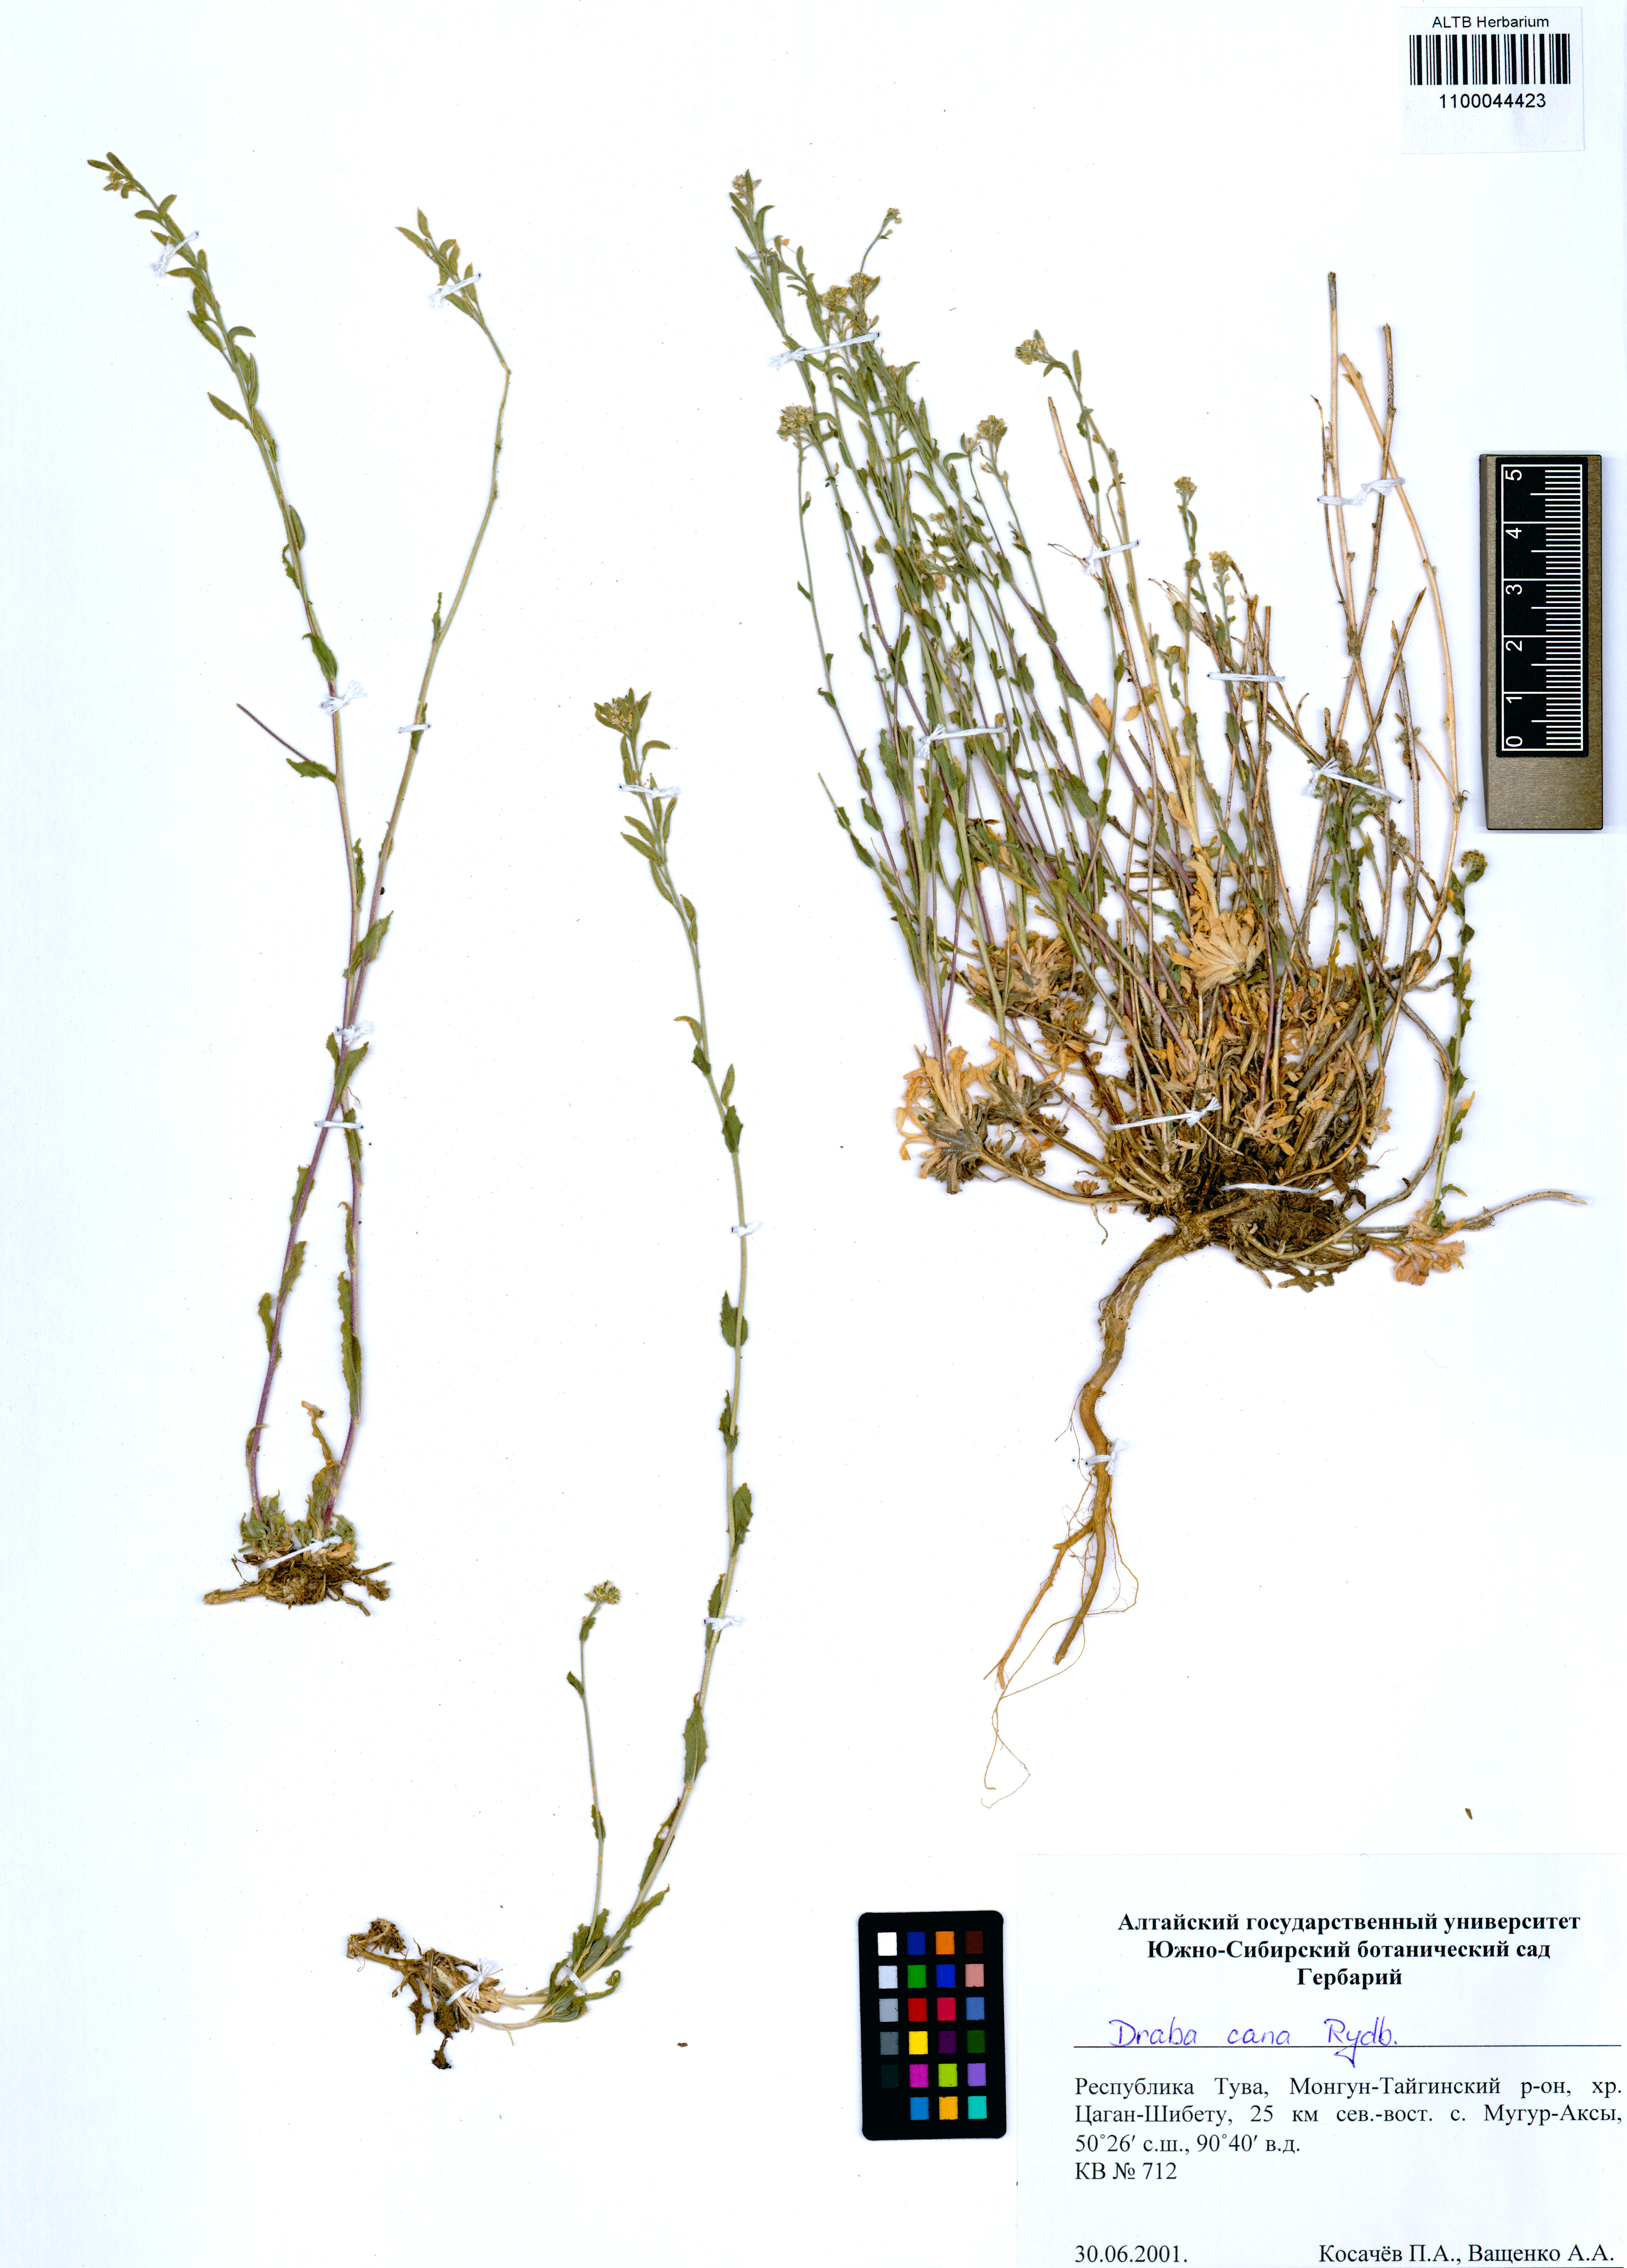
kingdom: Plantae
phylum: Tracheophyta
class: Magnoliopsida
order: Brassicales
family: Brassicaceae
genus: Draba
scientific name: Draba cana
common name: Hoary draba
